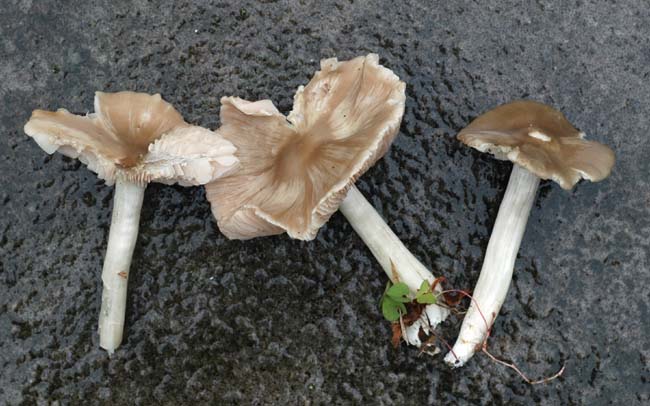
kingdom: Fungi
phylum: Basidiomycota
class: Agaricomycetes
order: Agaricales
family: Entolomataceae
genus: Entoloma
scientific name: Entoloma
